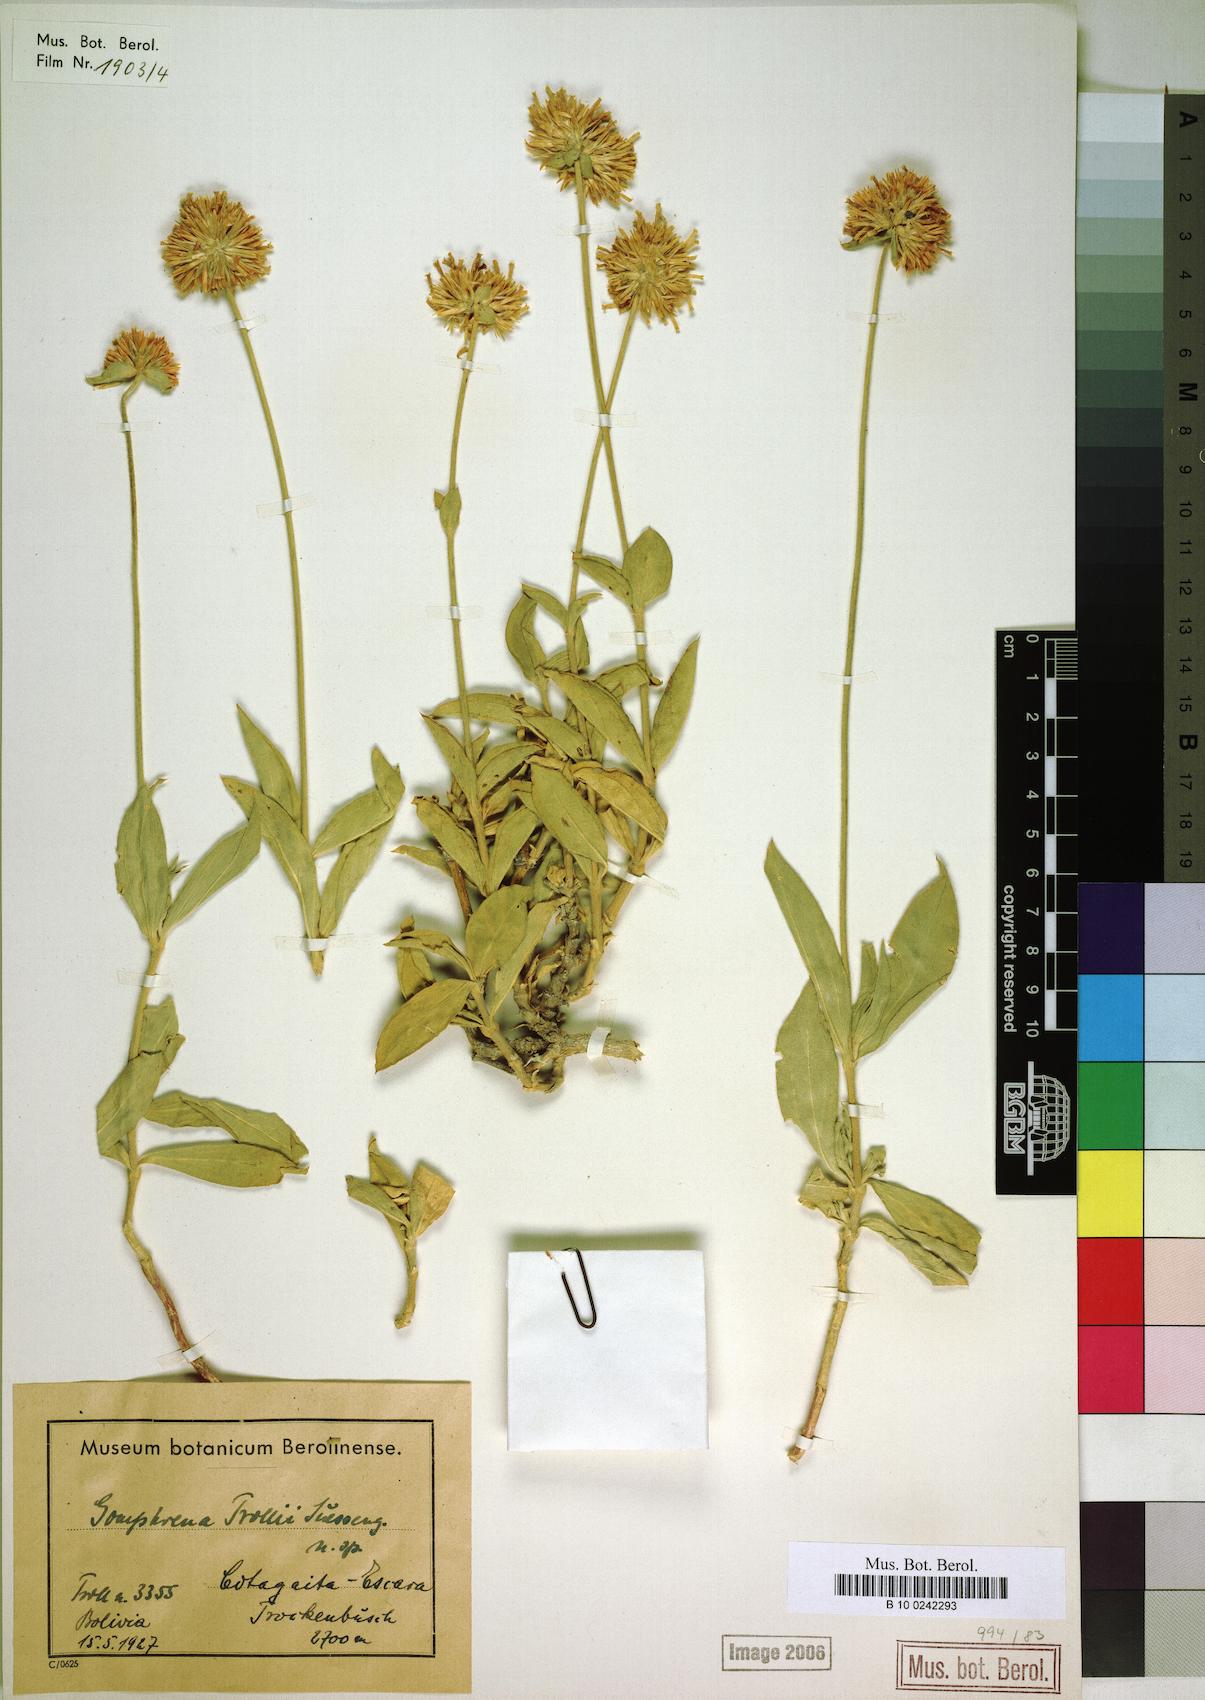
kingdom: Plantae
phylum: Tracheophyta
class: Magnoliopsida
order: Caryophyllales
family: Amaranthaceae
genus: Gomphrena
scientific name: Gomphrena trollii
